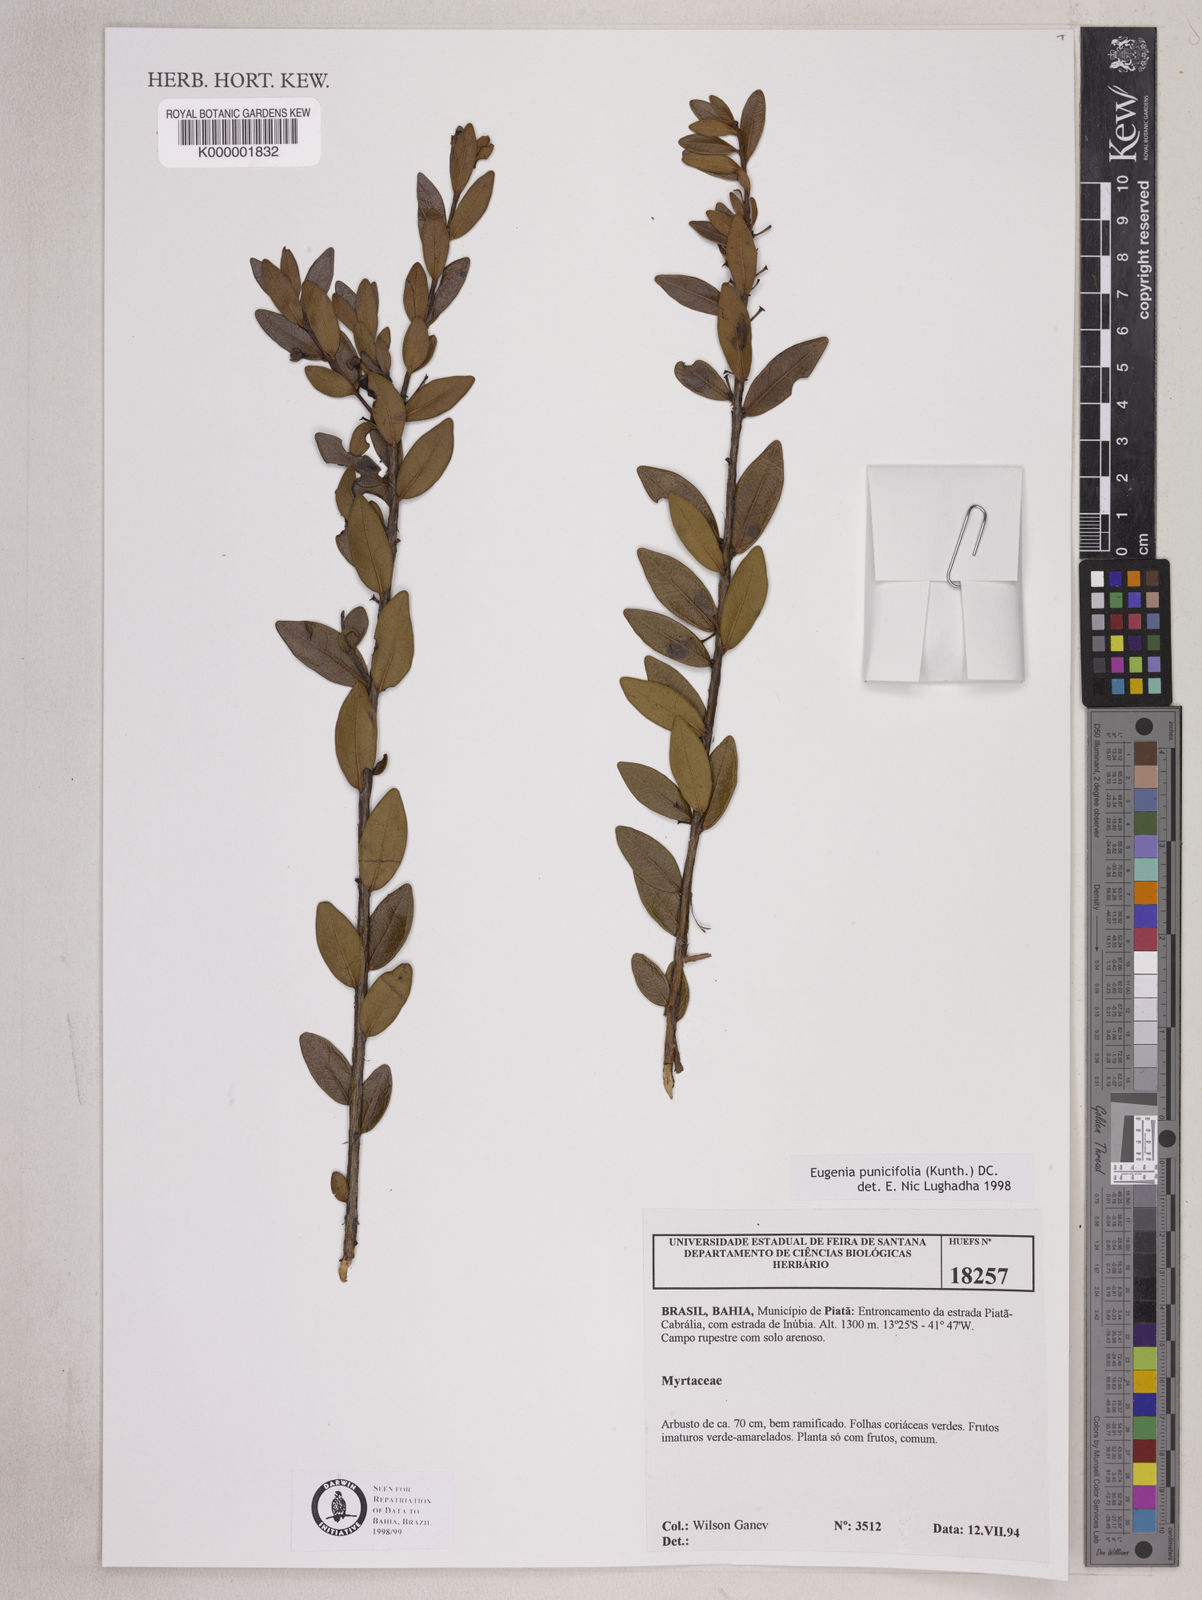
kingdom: Plantae
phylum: Tracheophyta
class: Magnoliopsida
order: Myrtales
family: Myrtaceae
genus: Eugenia
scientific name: Eugenia punicifolia
